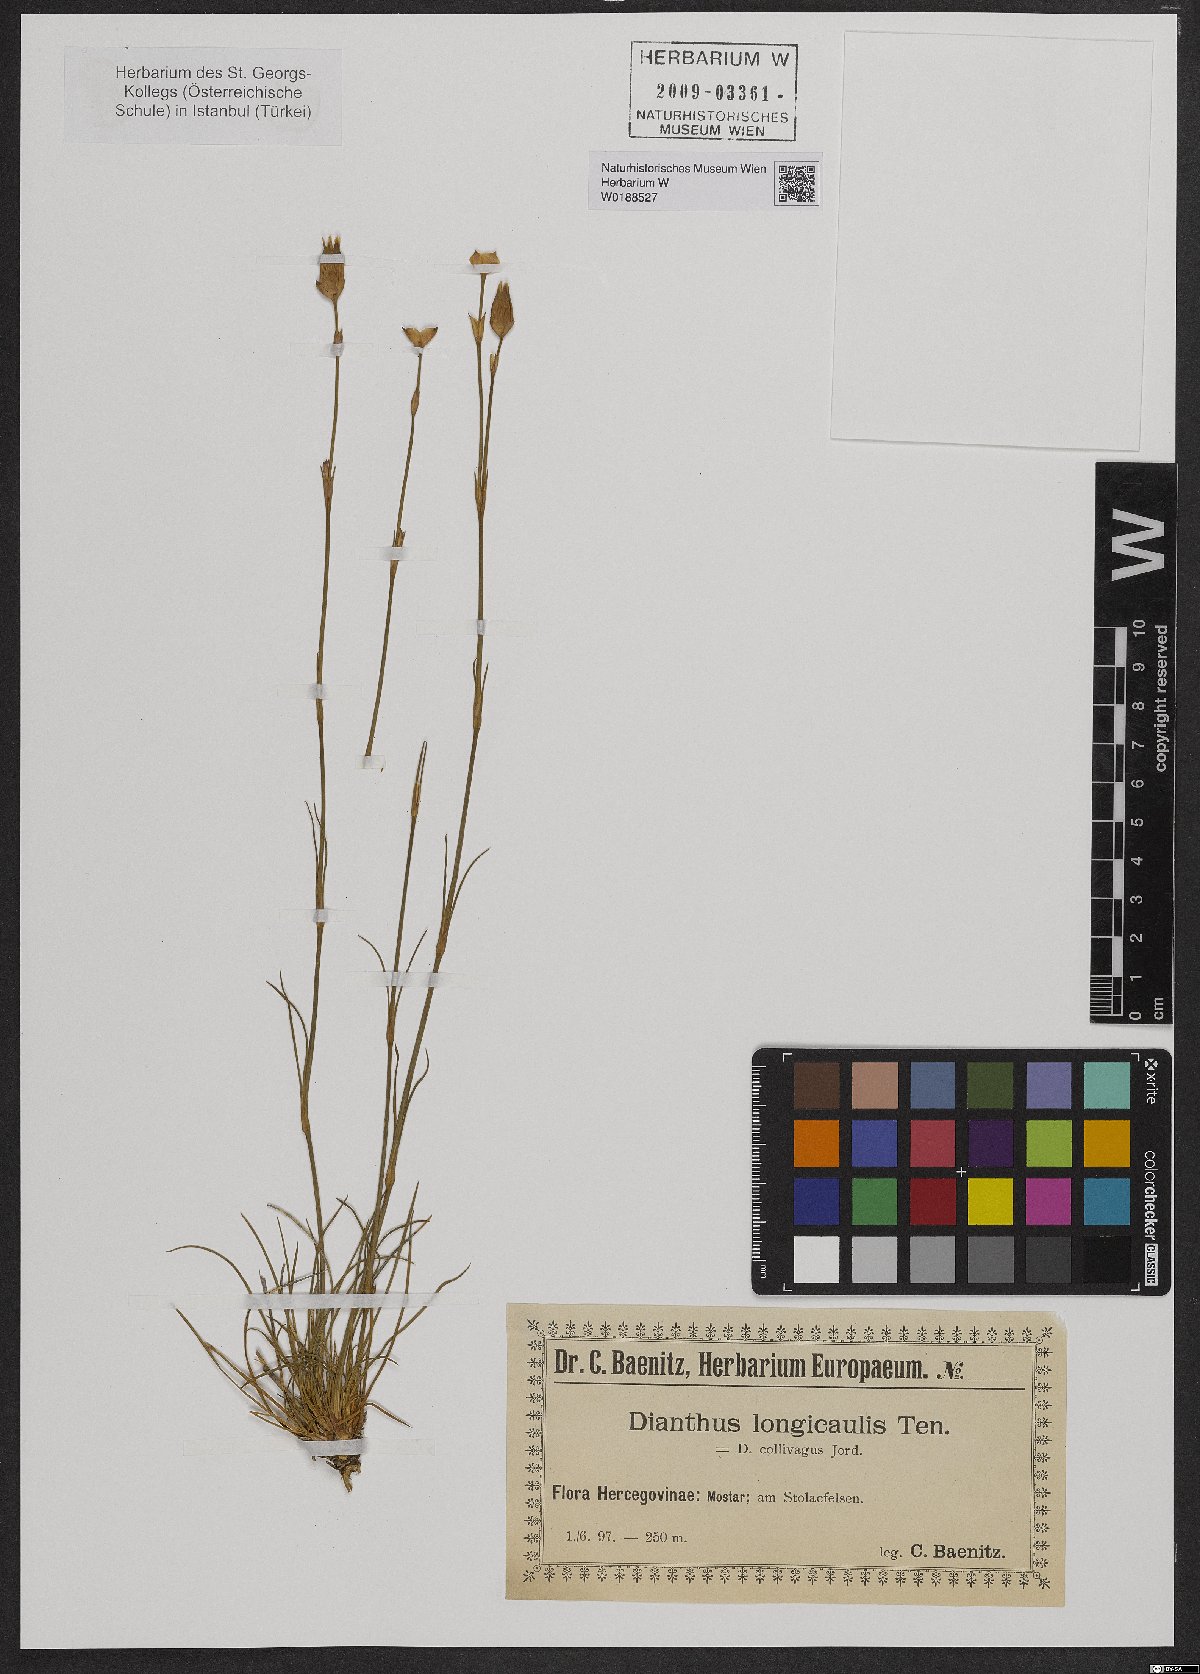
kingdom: Plantae
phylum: Tracheophyta
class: Magnoliopsida
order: Caryophyllales
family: Caryophyllaceae
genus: Dianthus
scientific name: Dianthus virgineus
